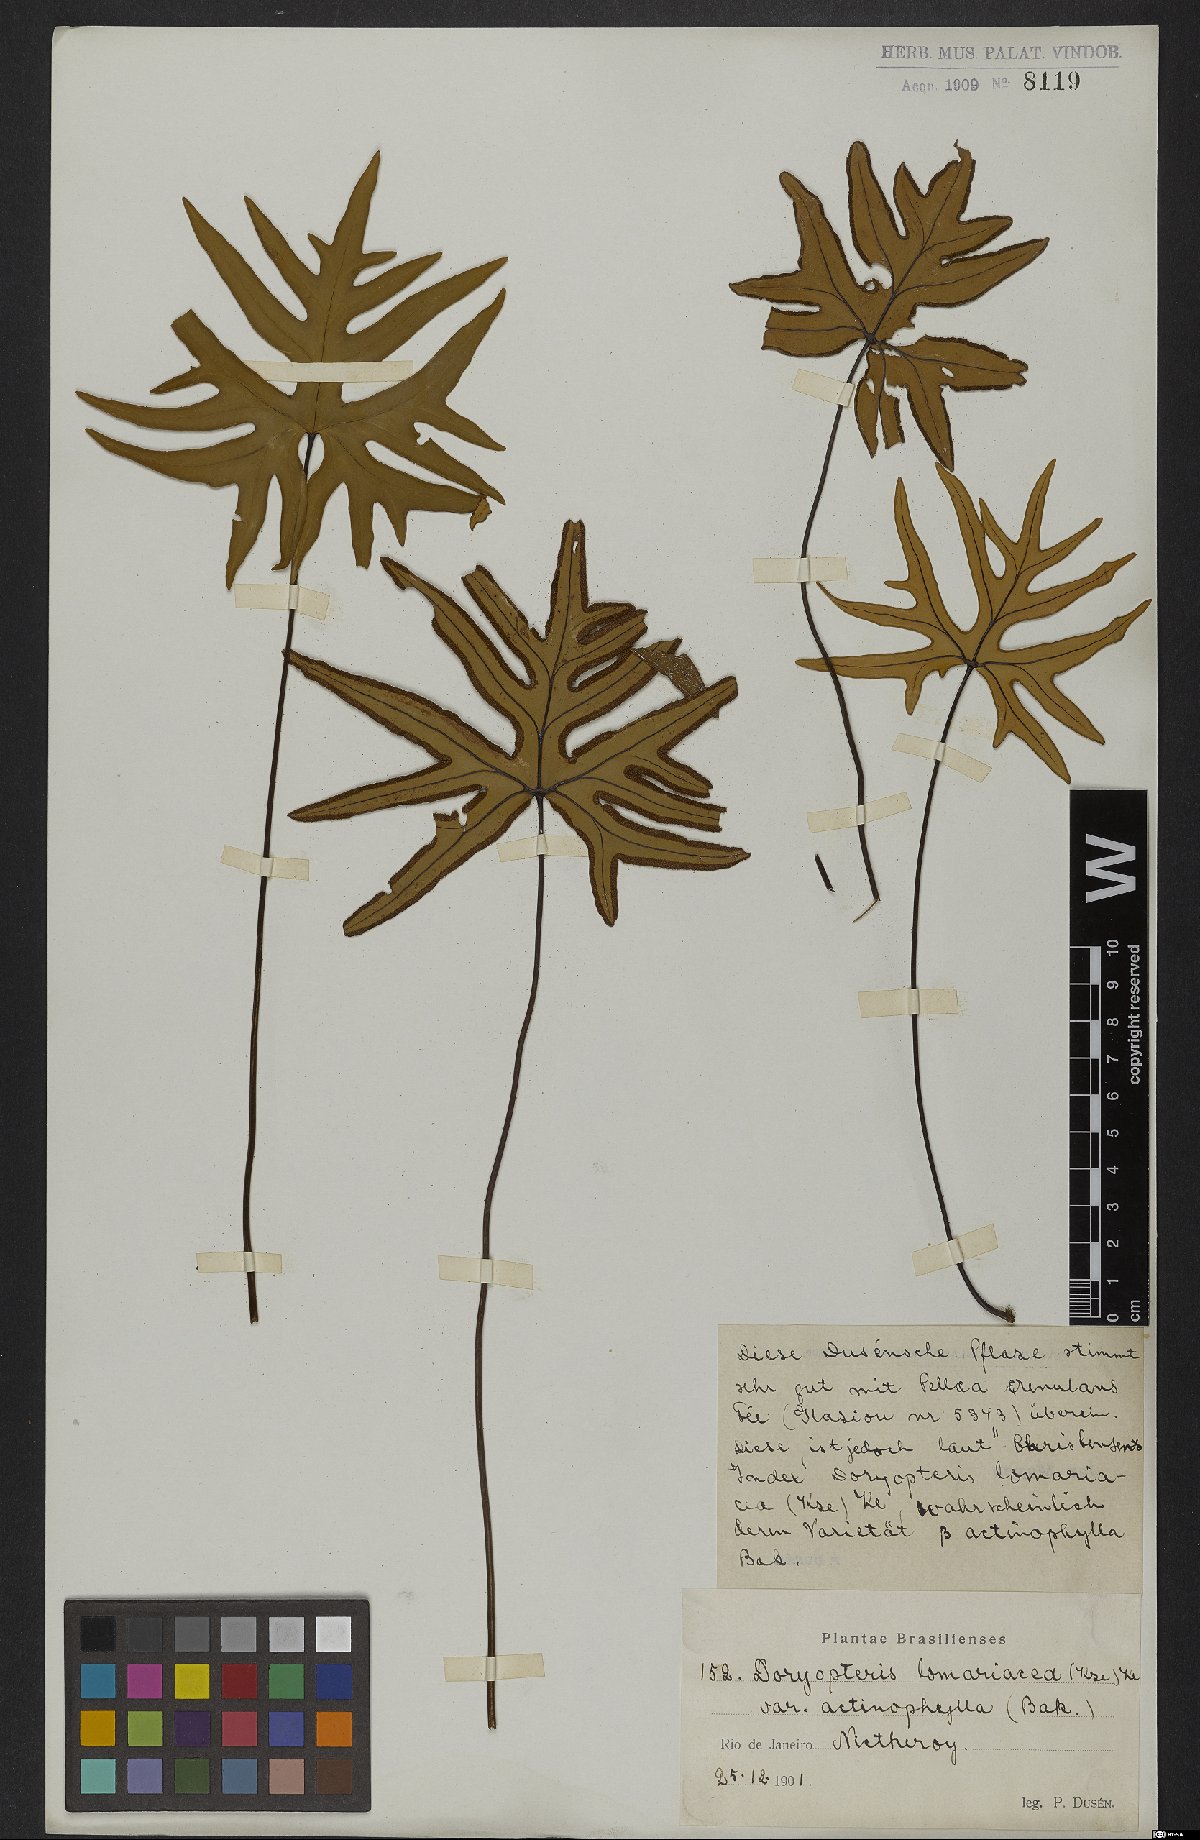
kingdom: Plantae
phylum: Tracheophyta
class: Polypodiopsida
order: Polypodiales
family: Pteridaceae
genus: Lytoneuron
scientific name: Lytoneuron lomariaceum
